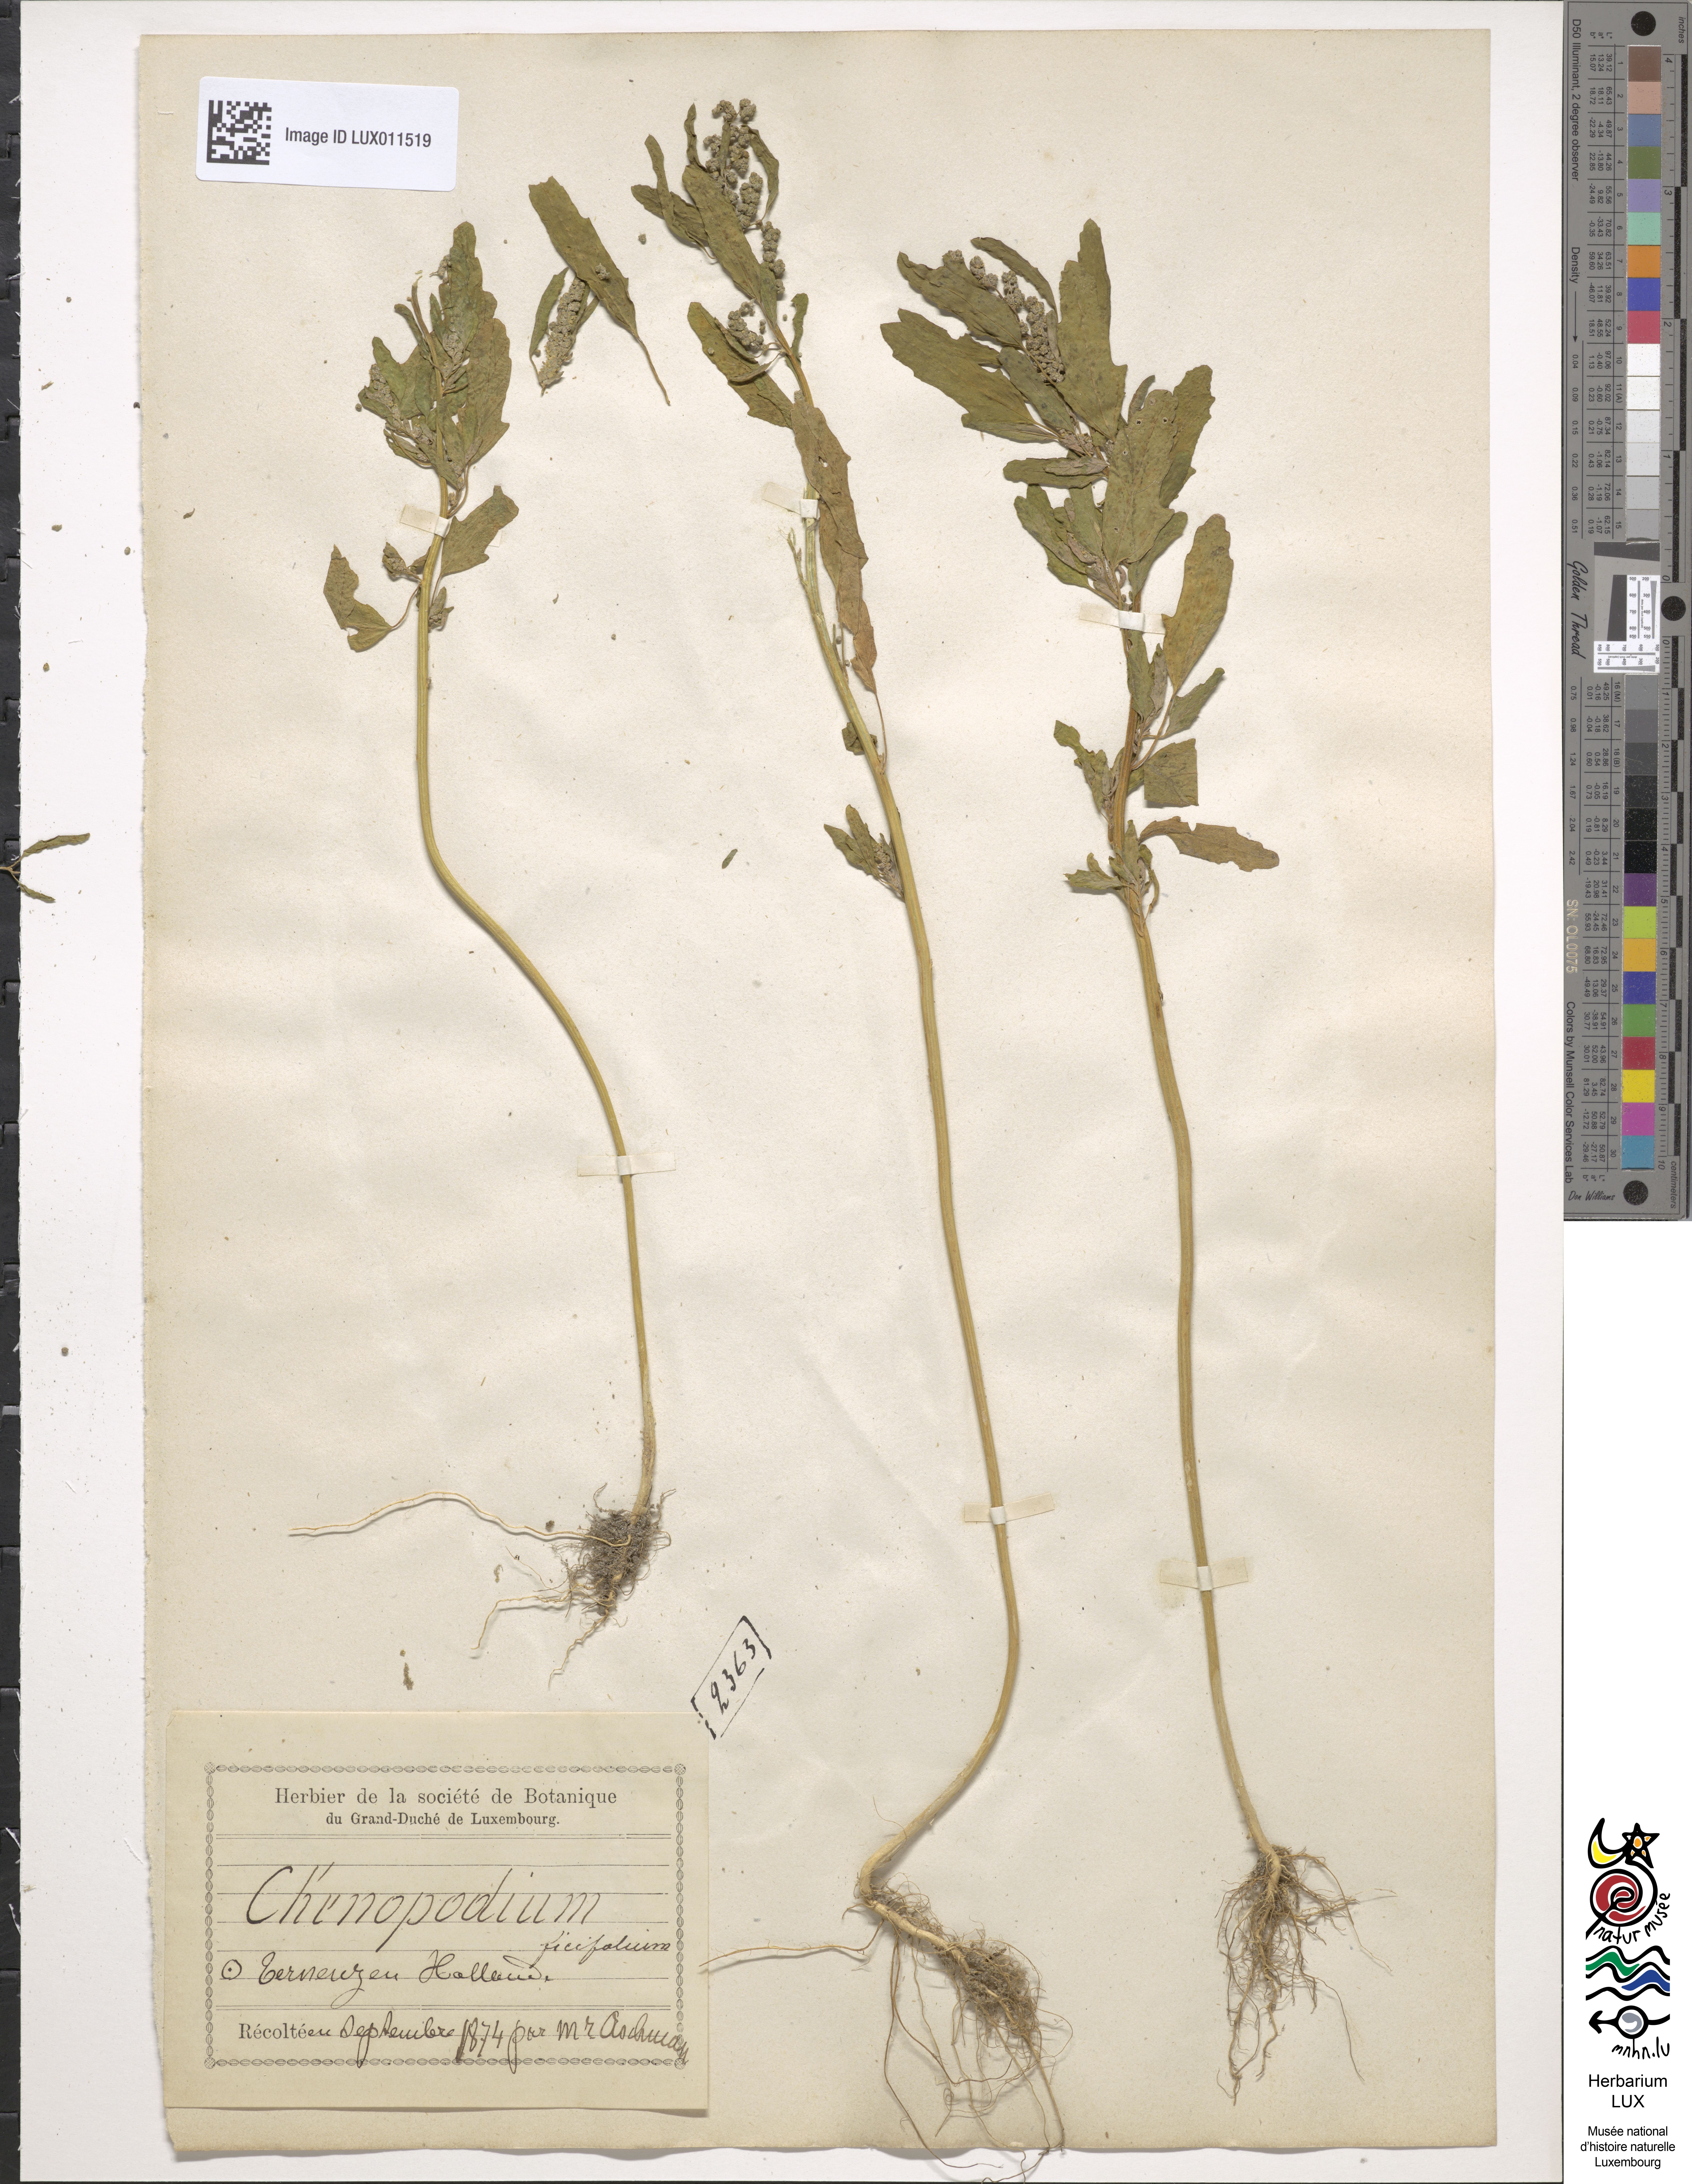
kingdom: Plantae
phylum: Tracheophyta
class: Magnoliopsida
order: Caryophyllales
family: Amaranthaceae
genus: Chenopodium
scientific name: Chenopodium ficifolium
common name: Fig-leaved goosefoot
